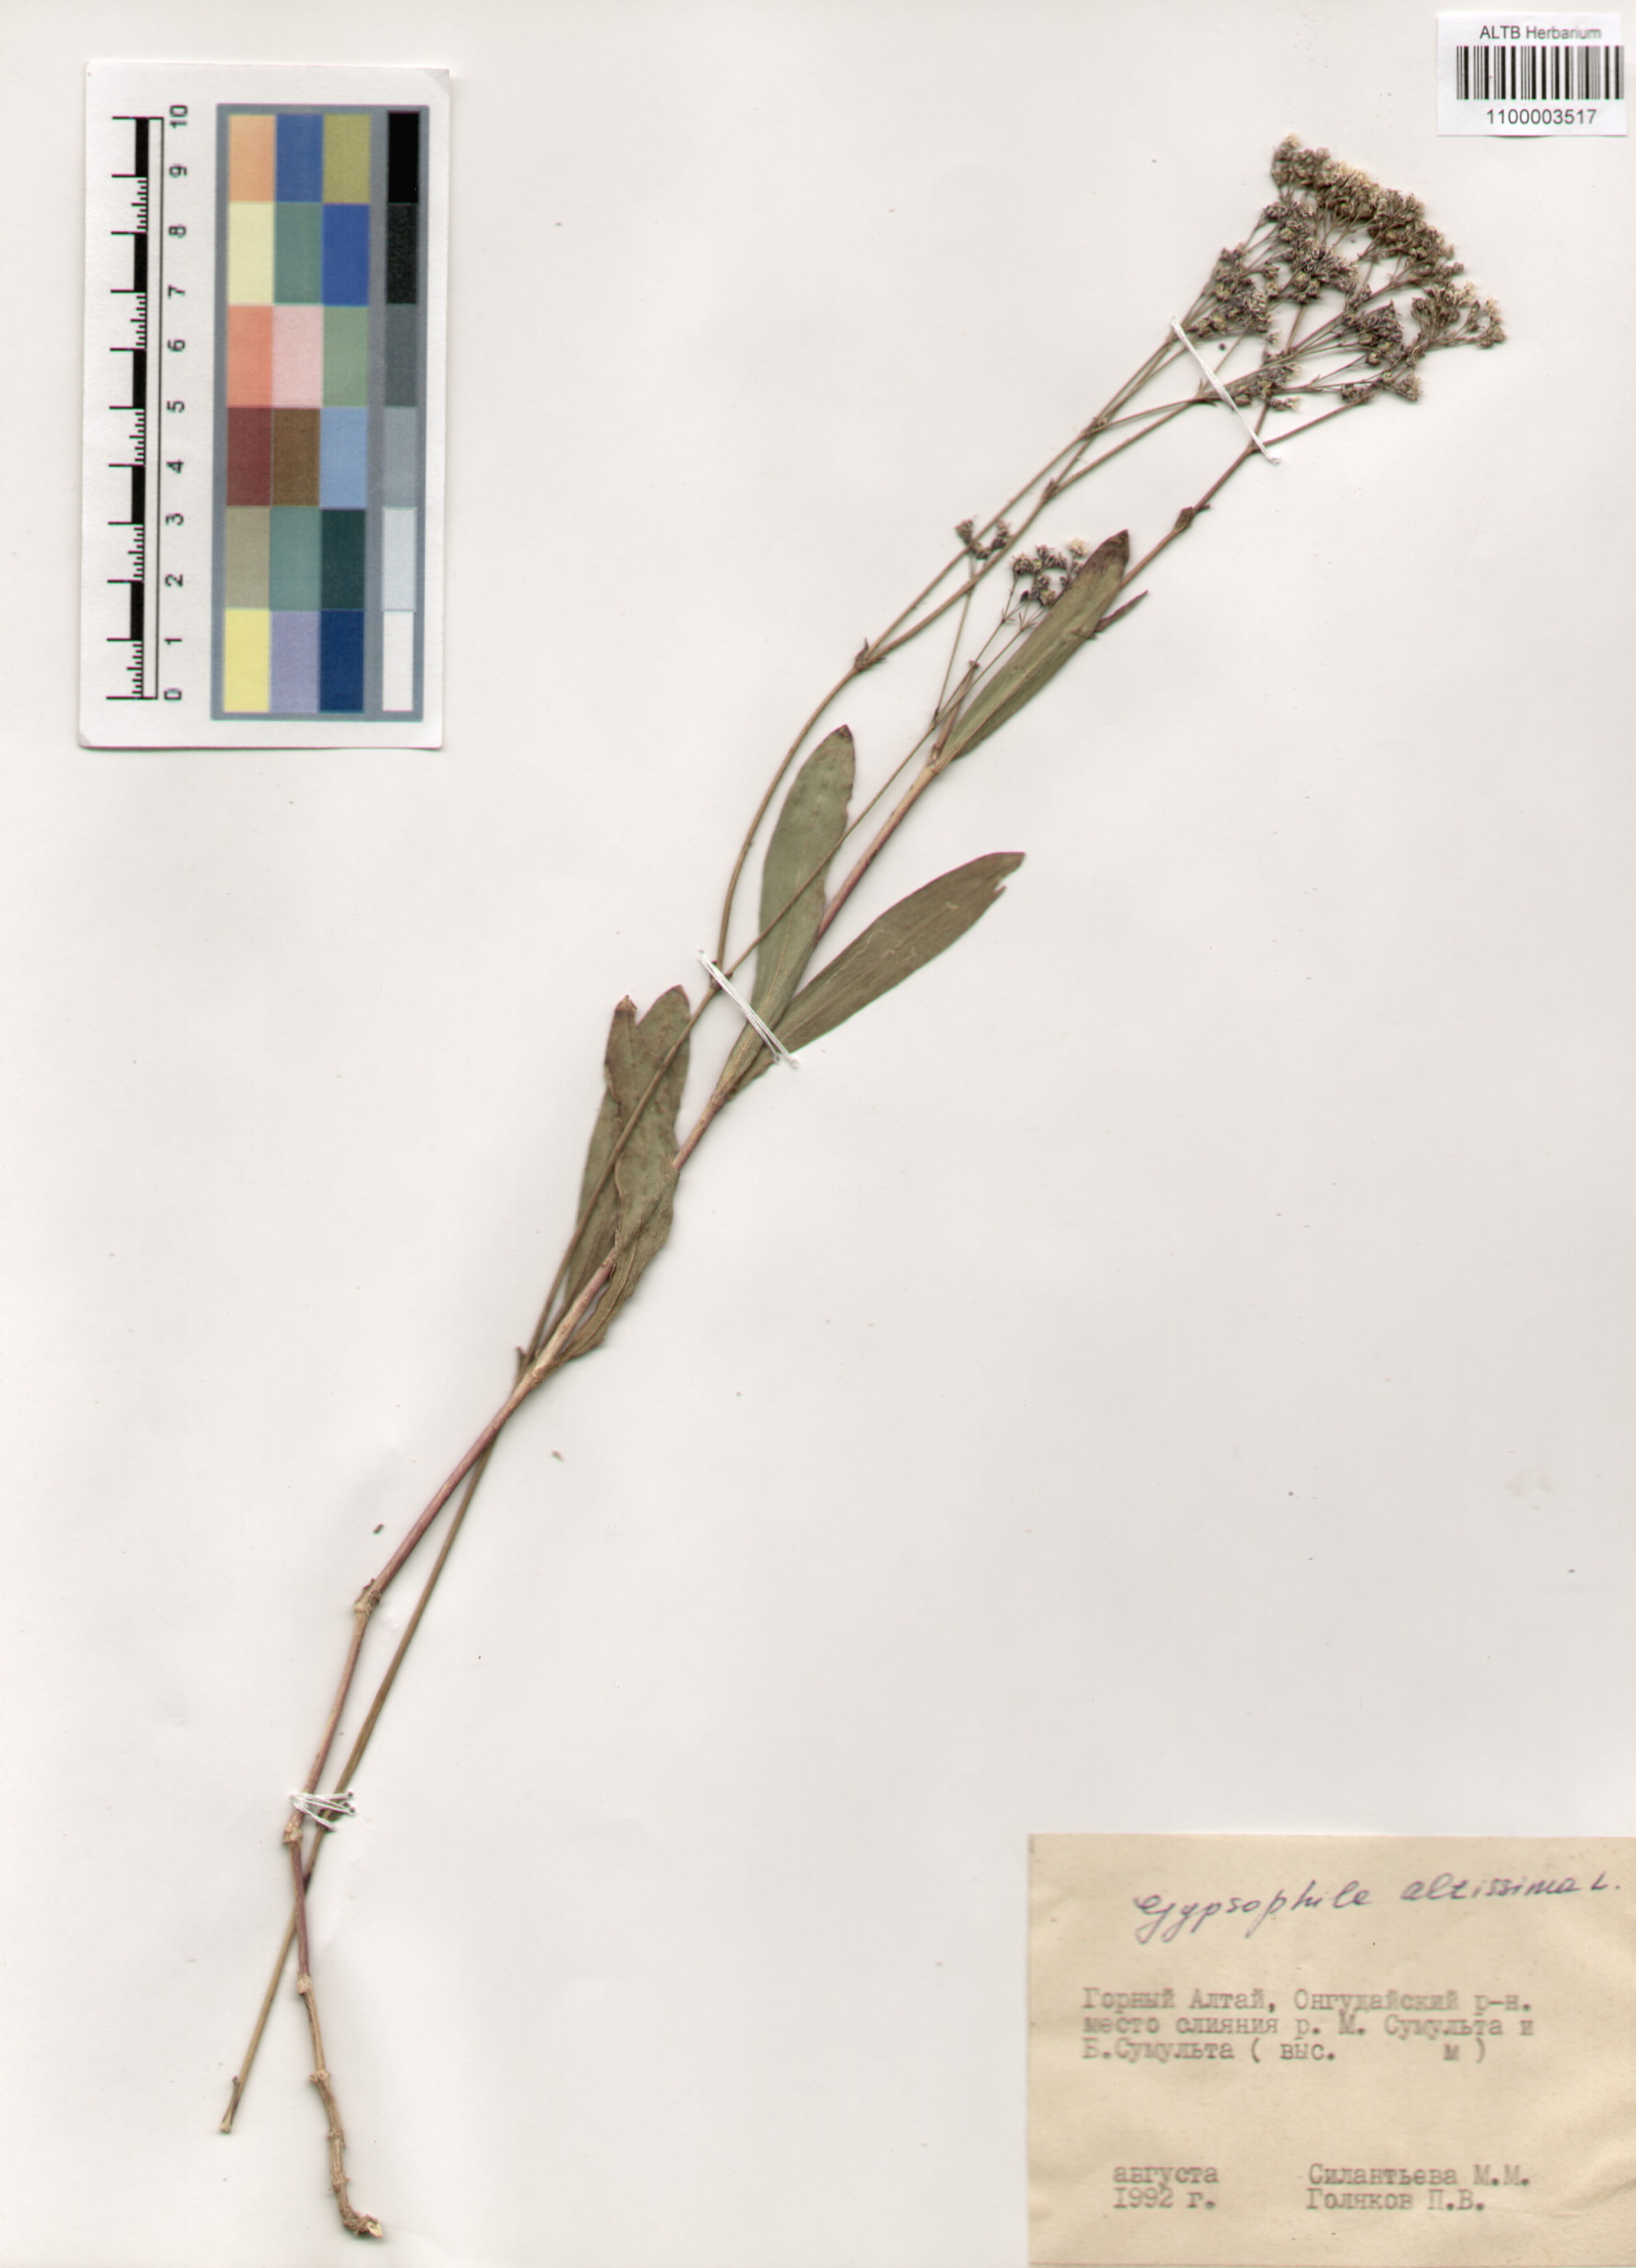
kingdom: Plantae
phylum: Tracheophyta
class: Magnoliopsida
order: Caryophyllales
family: Caryophyllaceae
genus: Gypsophila
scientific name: Gypsophila altissima
